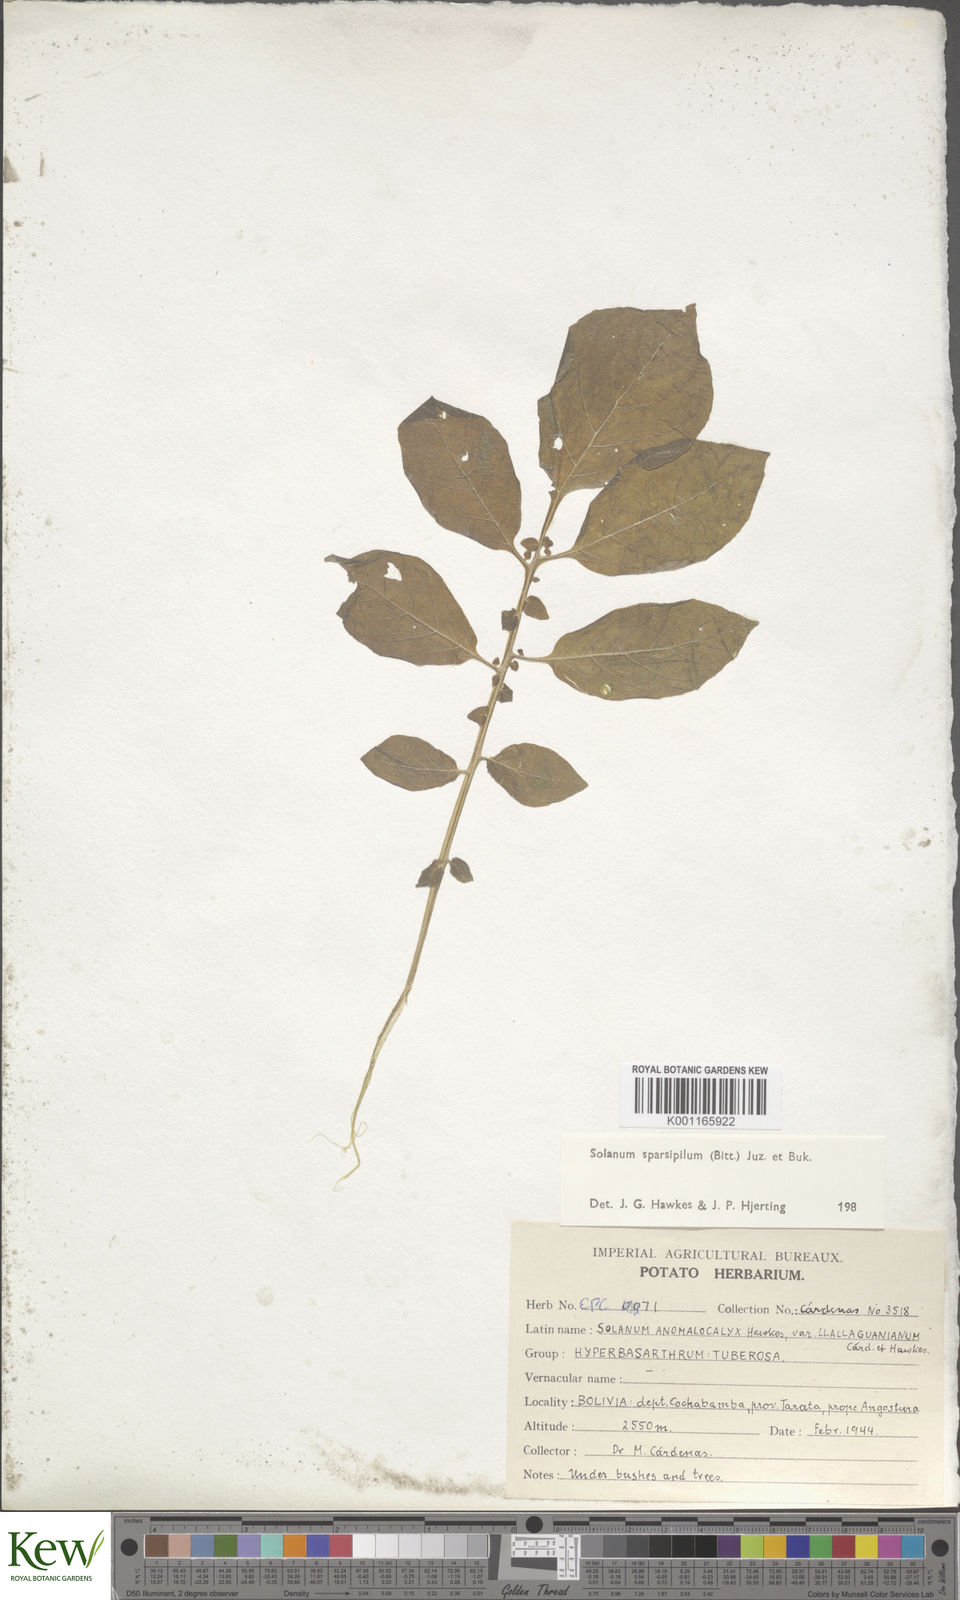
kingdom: Plantae
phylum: Tracheophyta
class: Magnoliopsida
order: Solanales
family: Solanaceae
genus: Solanum
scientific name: Solanum brevicaule
